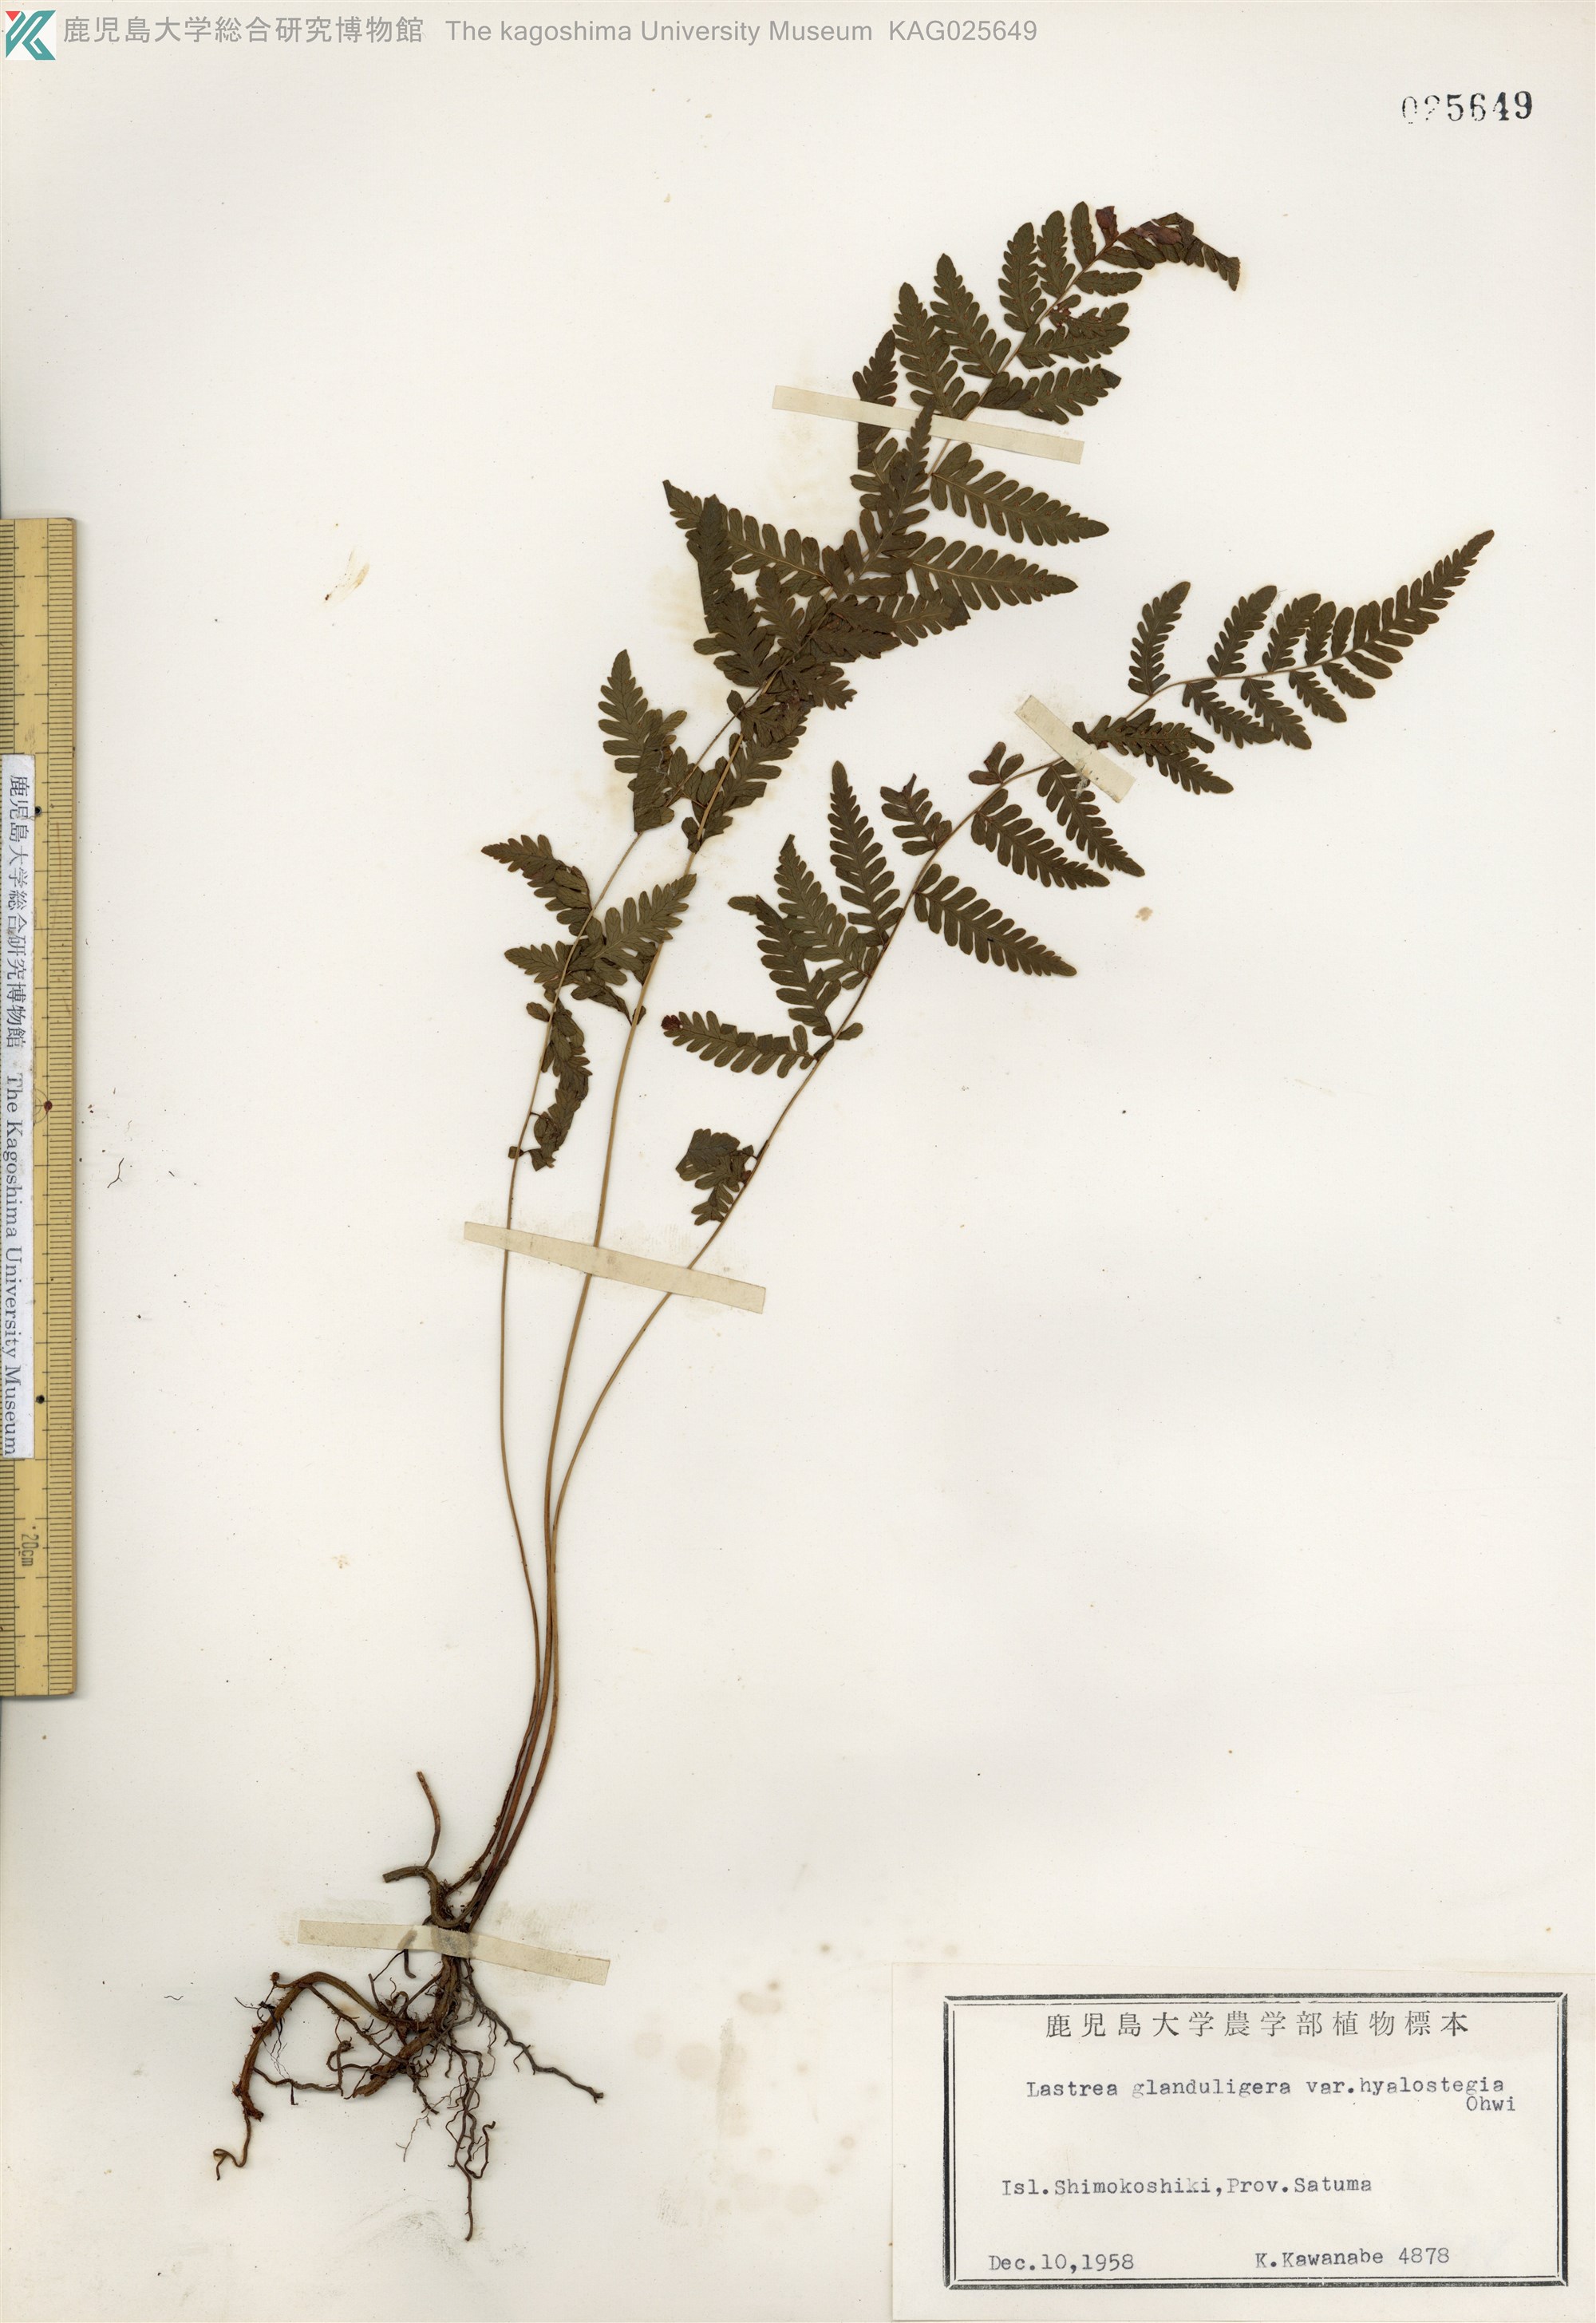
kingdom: Plantae
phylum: Tracheophyta
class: Polypodiopsida
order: Polypodiales
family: Thelypteridaceae
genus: Amauropelta
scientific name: Amauropelta angustifrons
